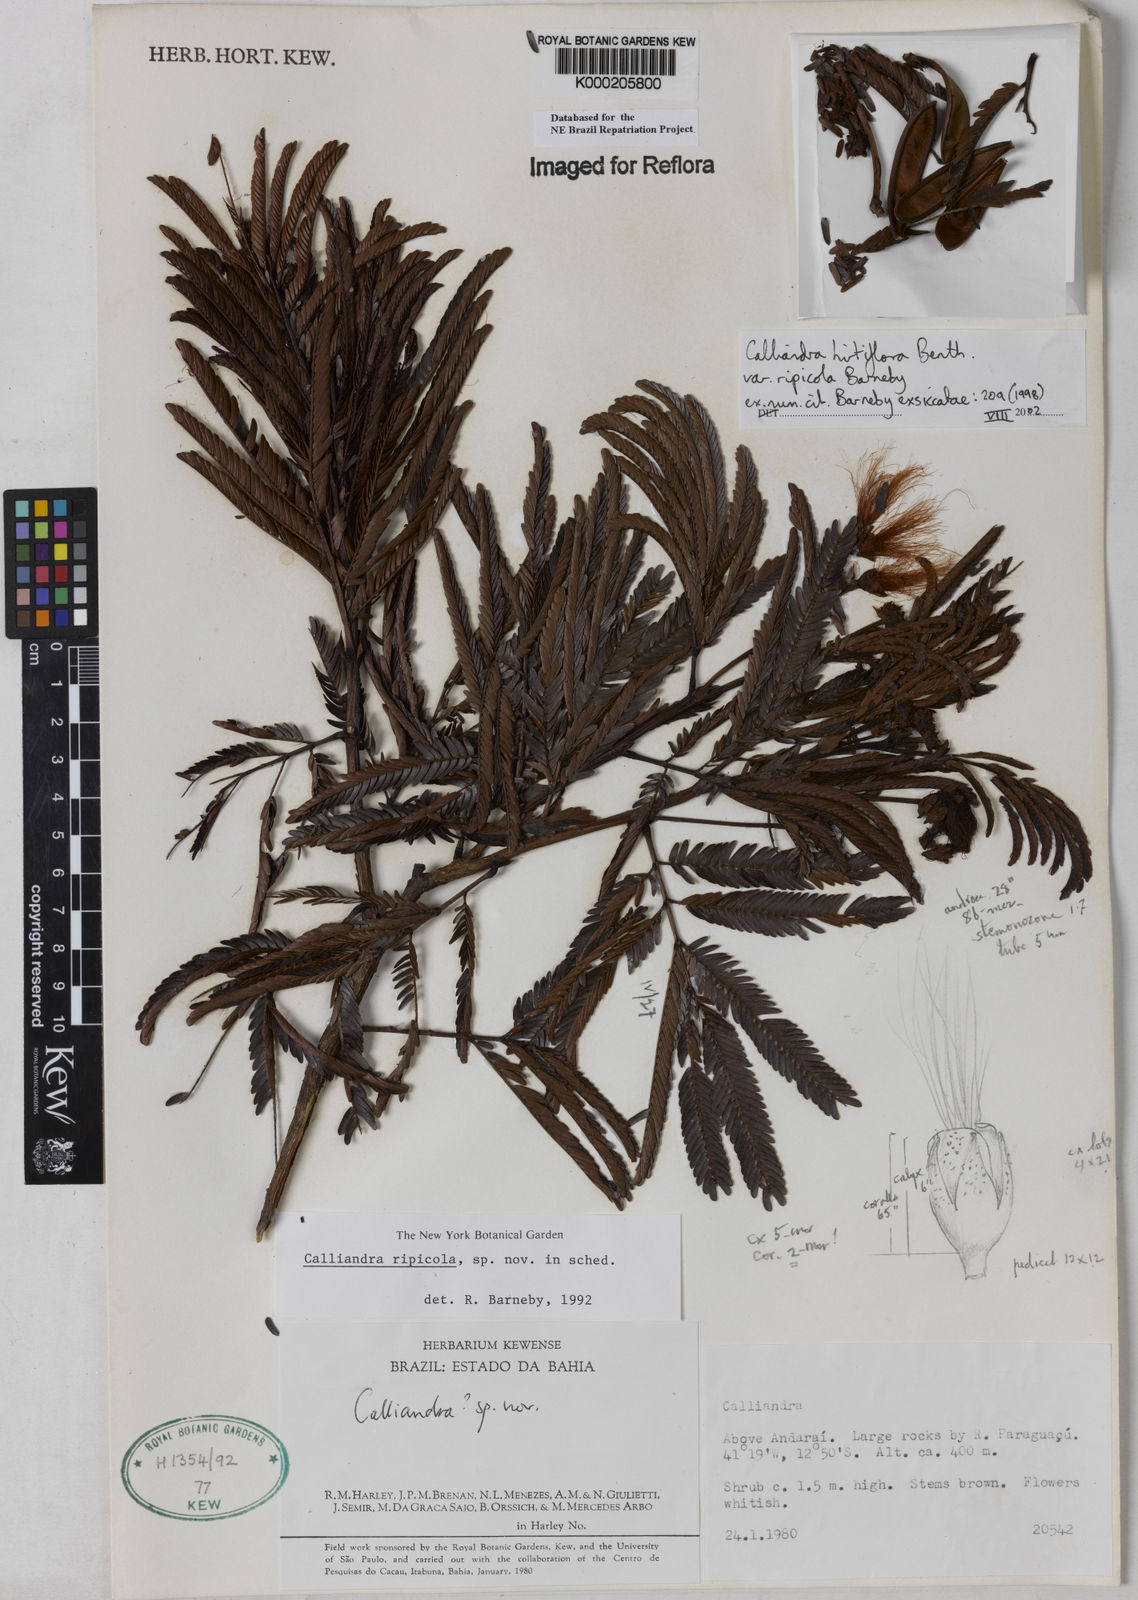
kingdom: Plantae
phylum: Tracheophyta
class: Magnoliopsida
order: Fabales
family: Fabaceae
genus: Calliandra
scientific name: Calliandra hirtiflora
